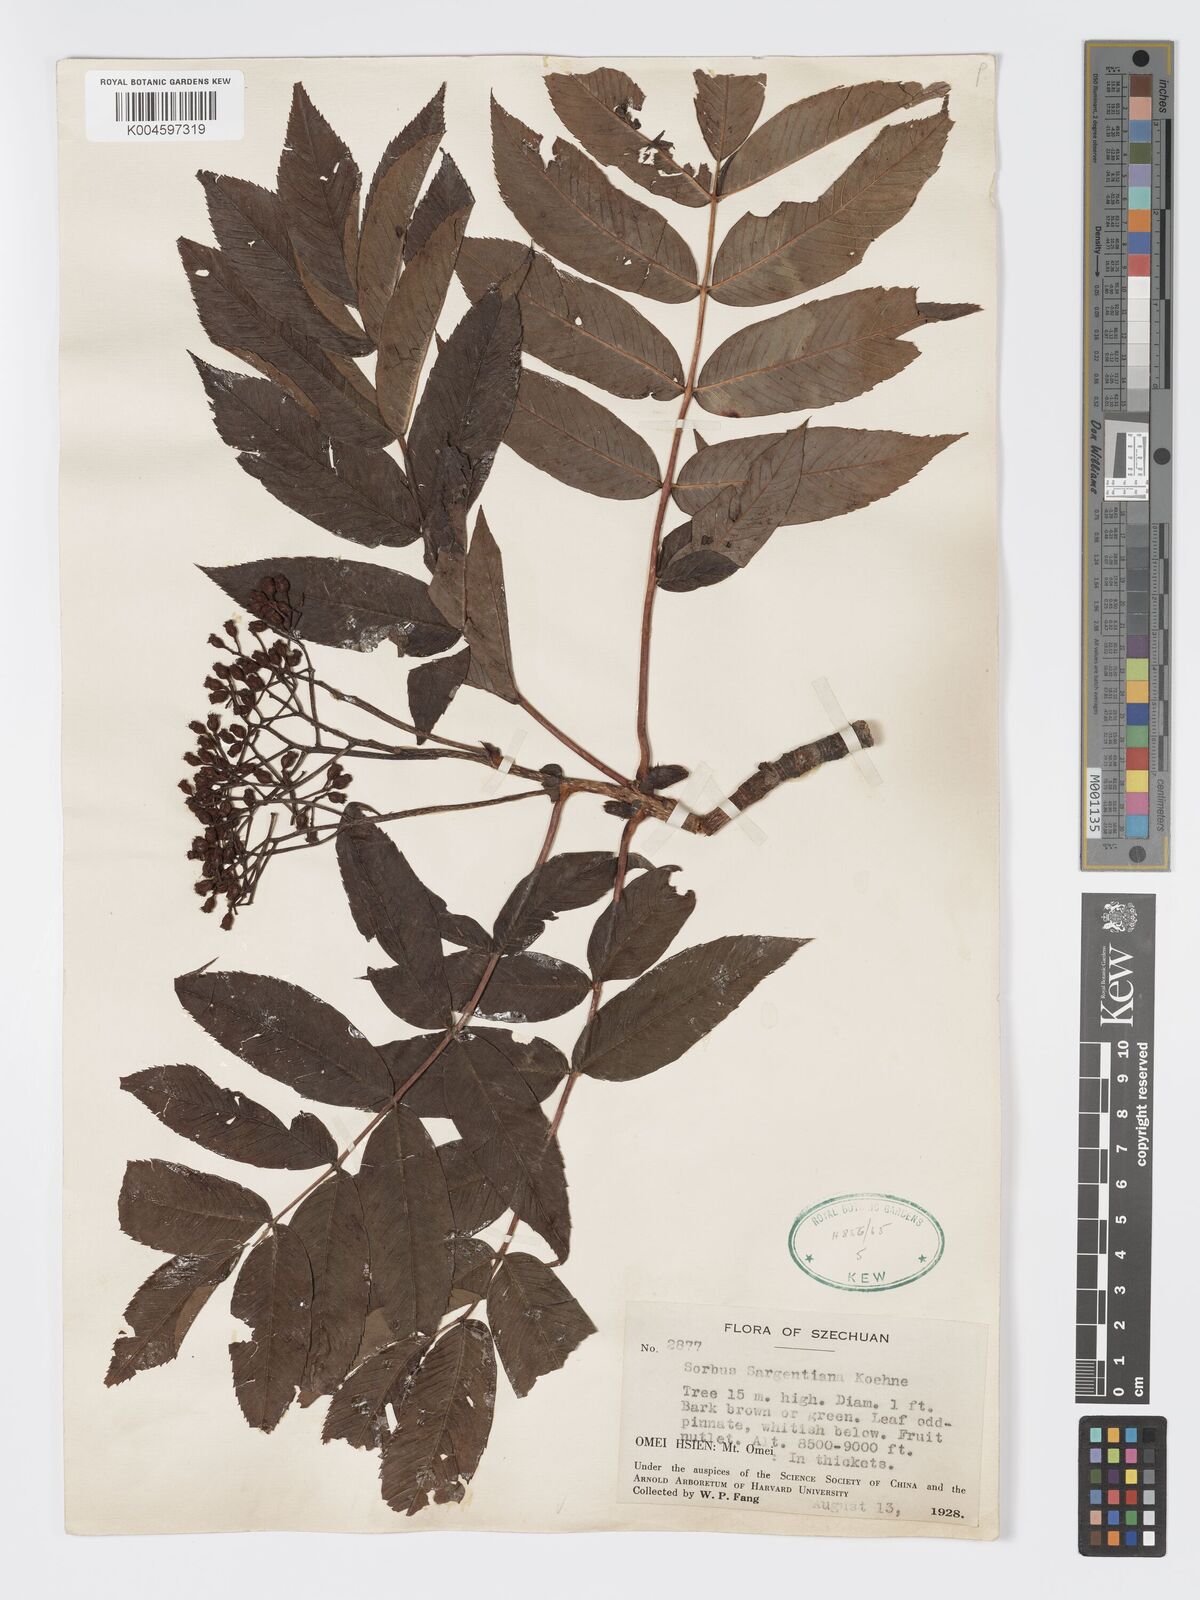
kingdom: Plantae
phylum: Tracheophyta
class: Magnoliopsida
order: Rosales
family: Rosaceae
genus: Sorbus
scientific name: Sorbus sargentiana
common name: Sargent's rowan
